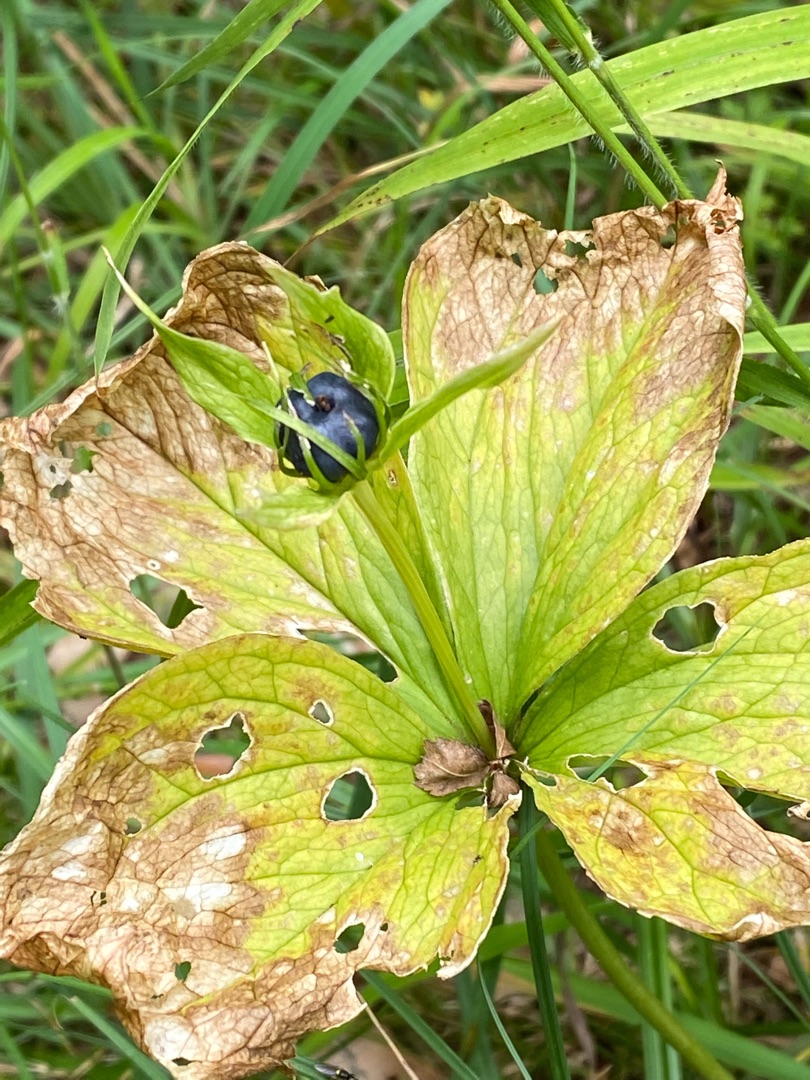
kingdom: Plantae
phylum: Tracheophyta
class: Liliopsida
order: Liliales
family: Melanthiaceae
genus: Paris
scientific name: Paris quadrifolia
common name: Firblad
